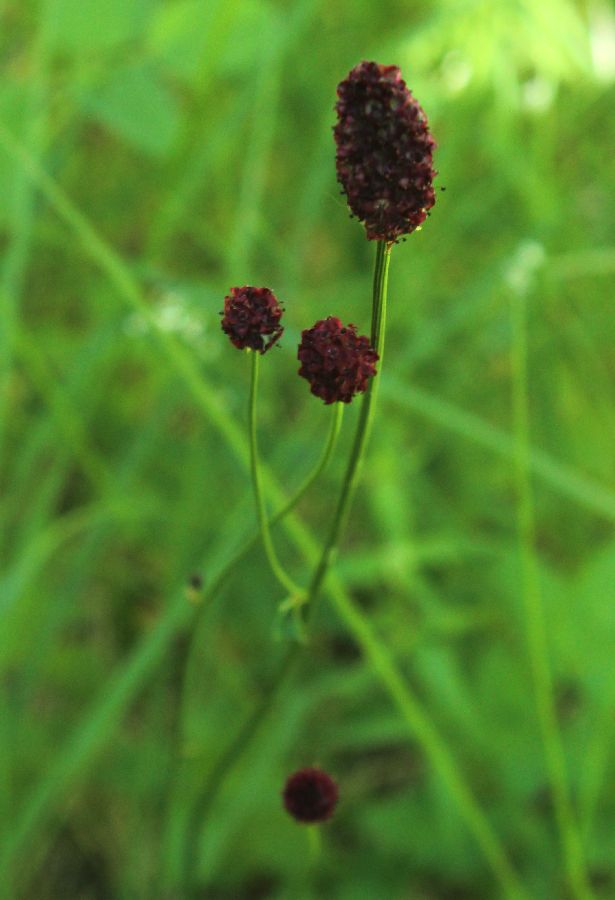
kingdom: Plantae
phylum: Tracheophyta
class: Magnoliopsida
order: Rosales
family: Rosaceae
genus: Sanguisorba
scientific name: Sanguisorba officinalis
